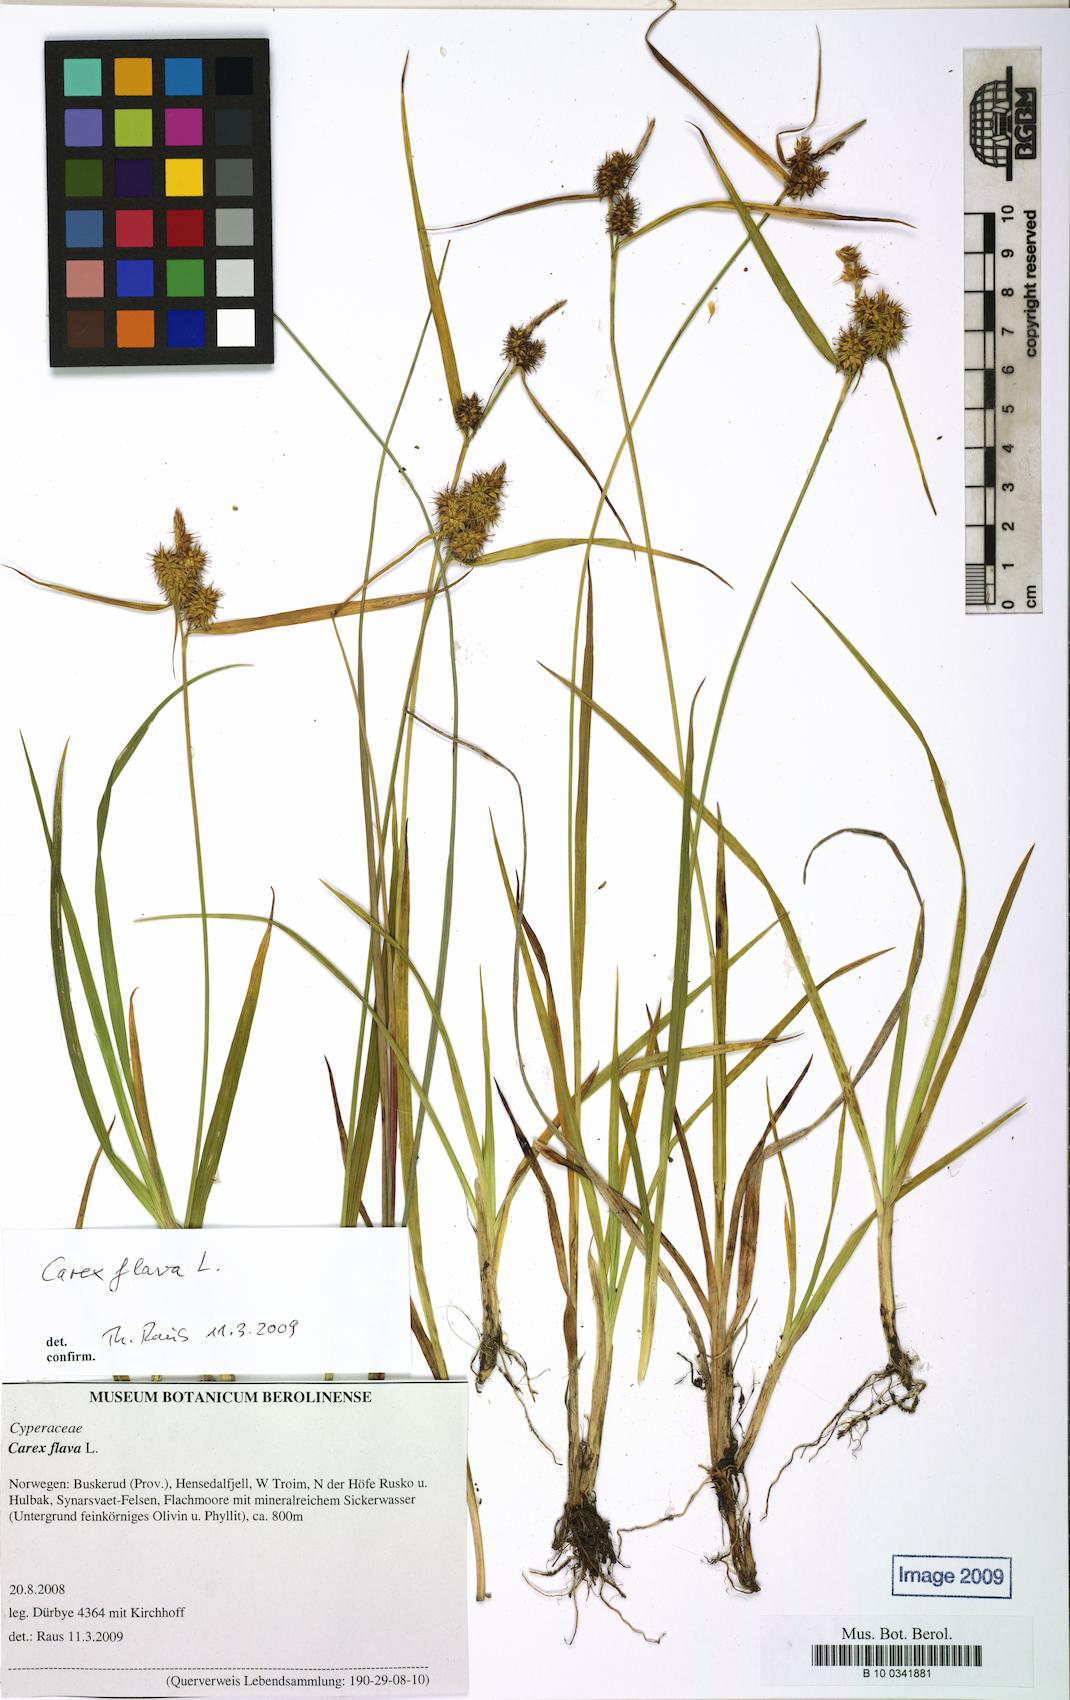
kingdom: Plantae
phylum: Tracheophyta
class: Liliopsida
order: Poales
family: Cyperaceae
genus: Carex
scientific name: Carex flava
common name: Large yellow-sedge
